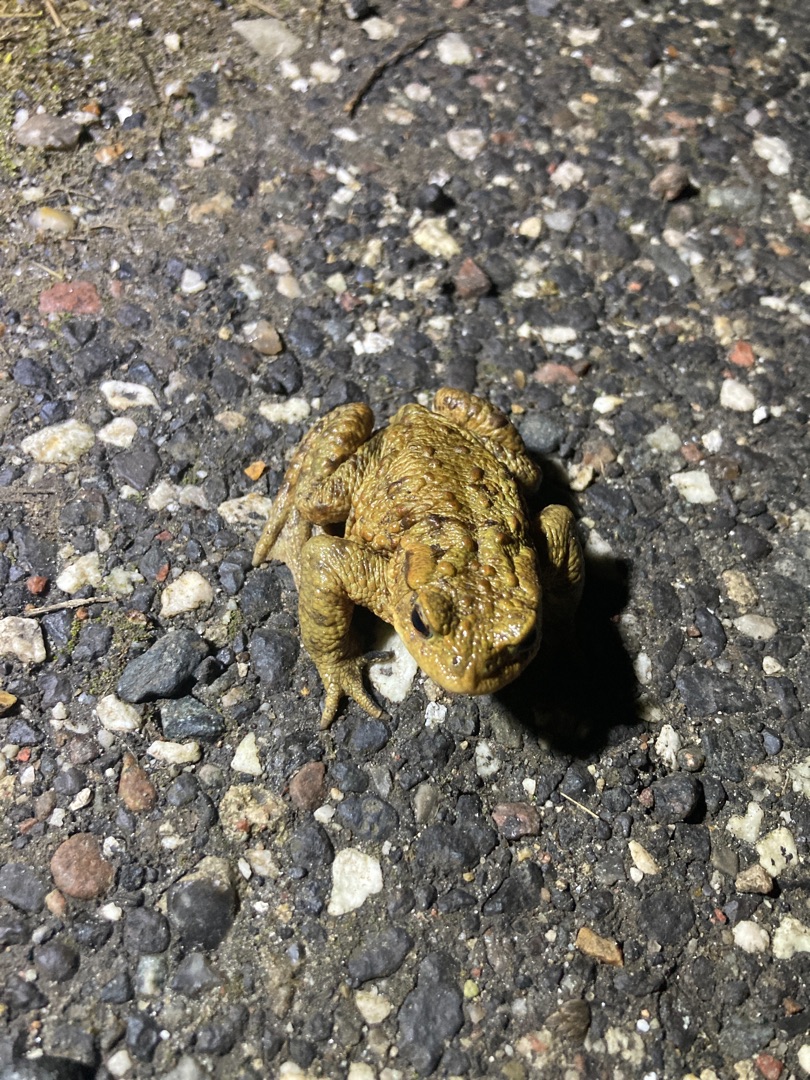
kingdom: Animalia
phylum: Chordata
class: Amphibia
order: Anura
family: Bufonidae
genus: Bufo
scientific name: Bufo bufo
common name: Skrubtudse
